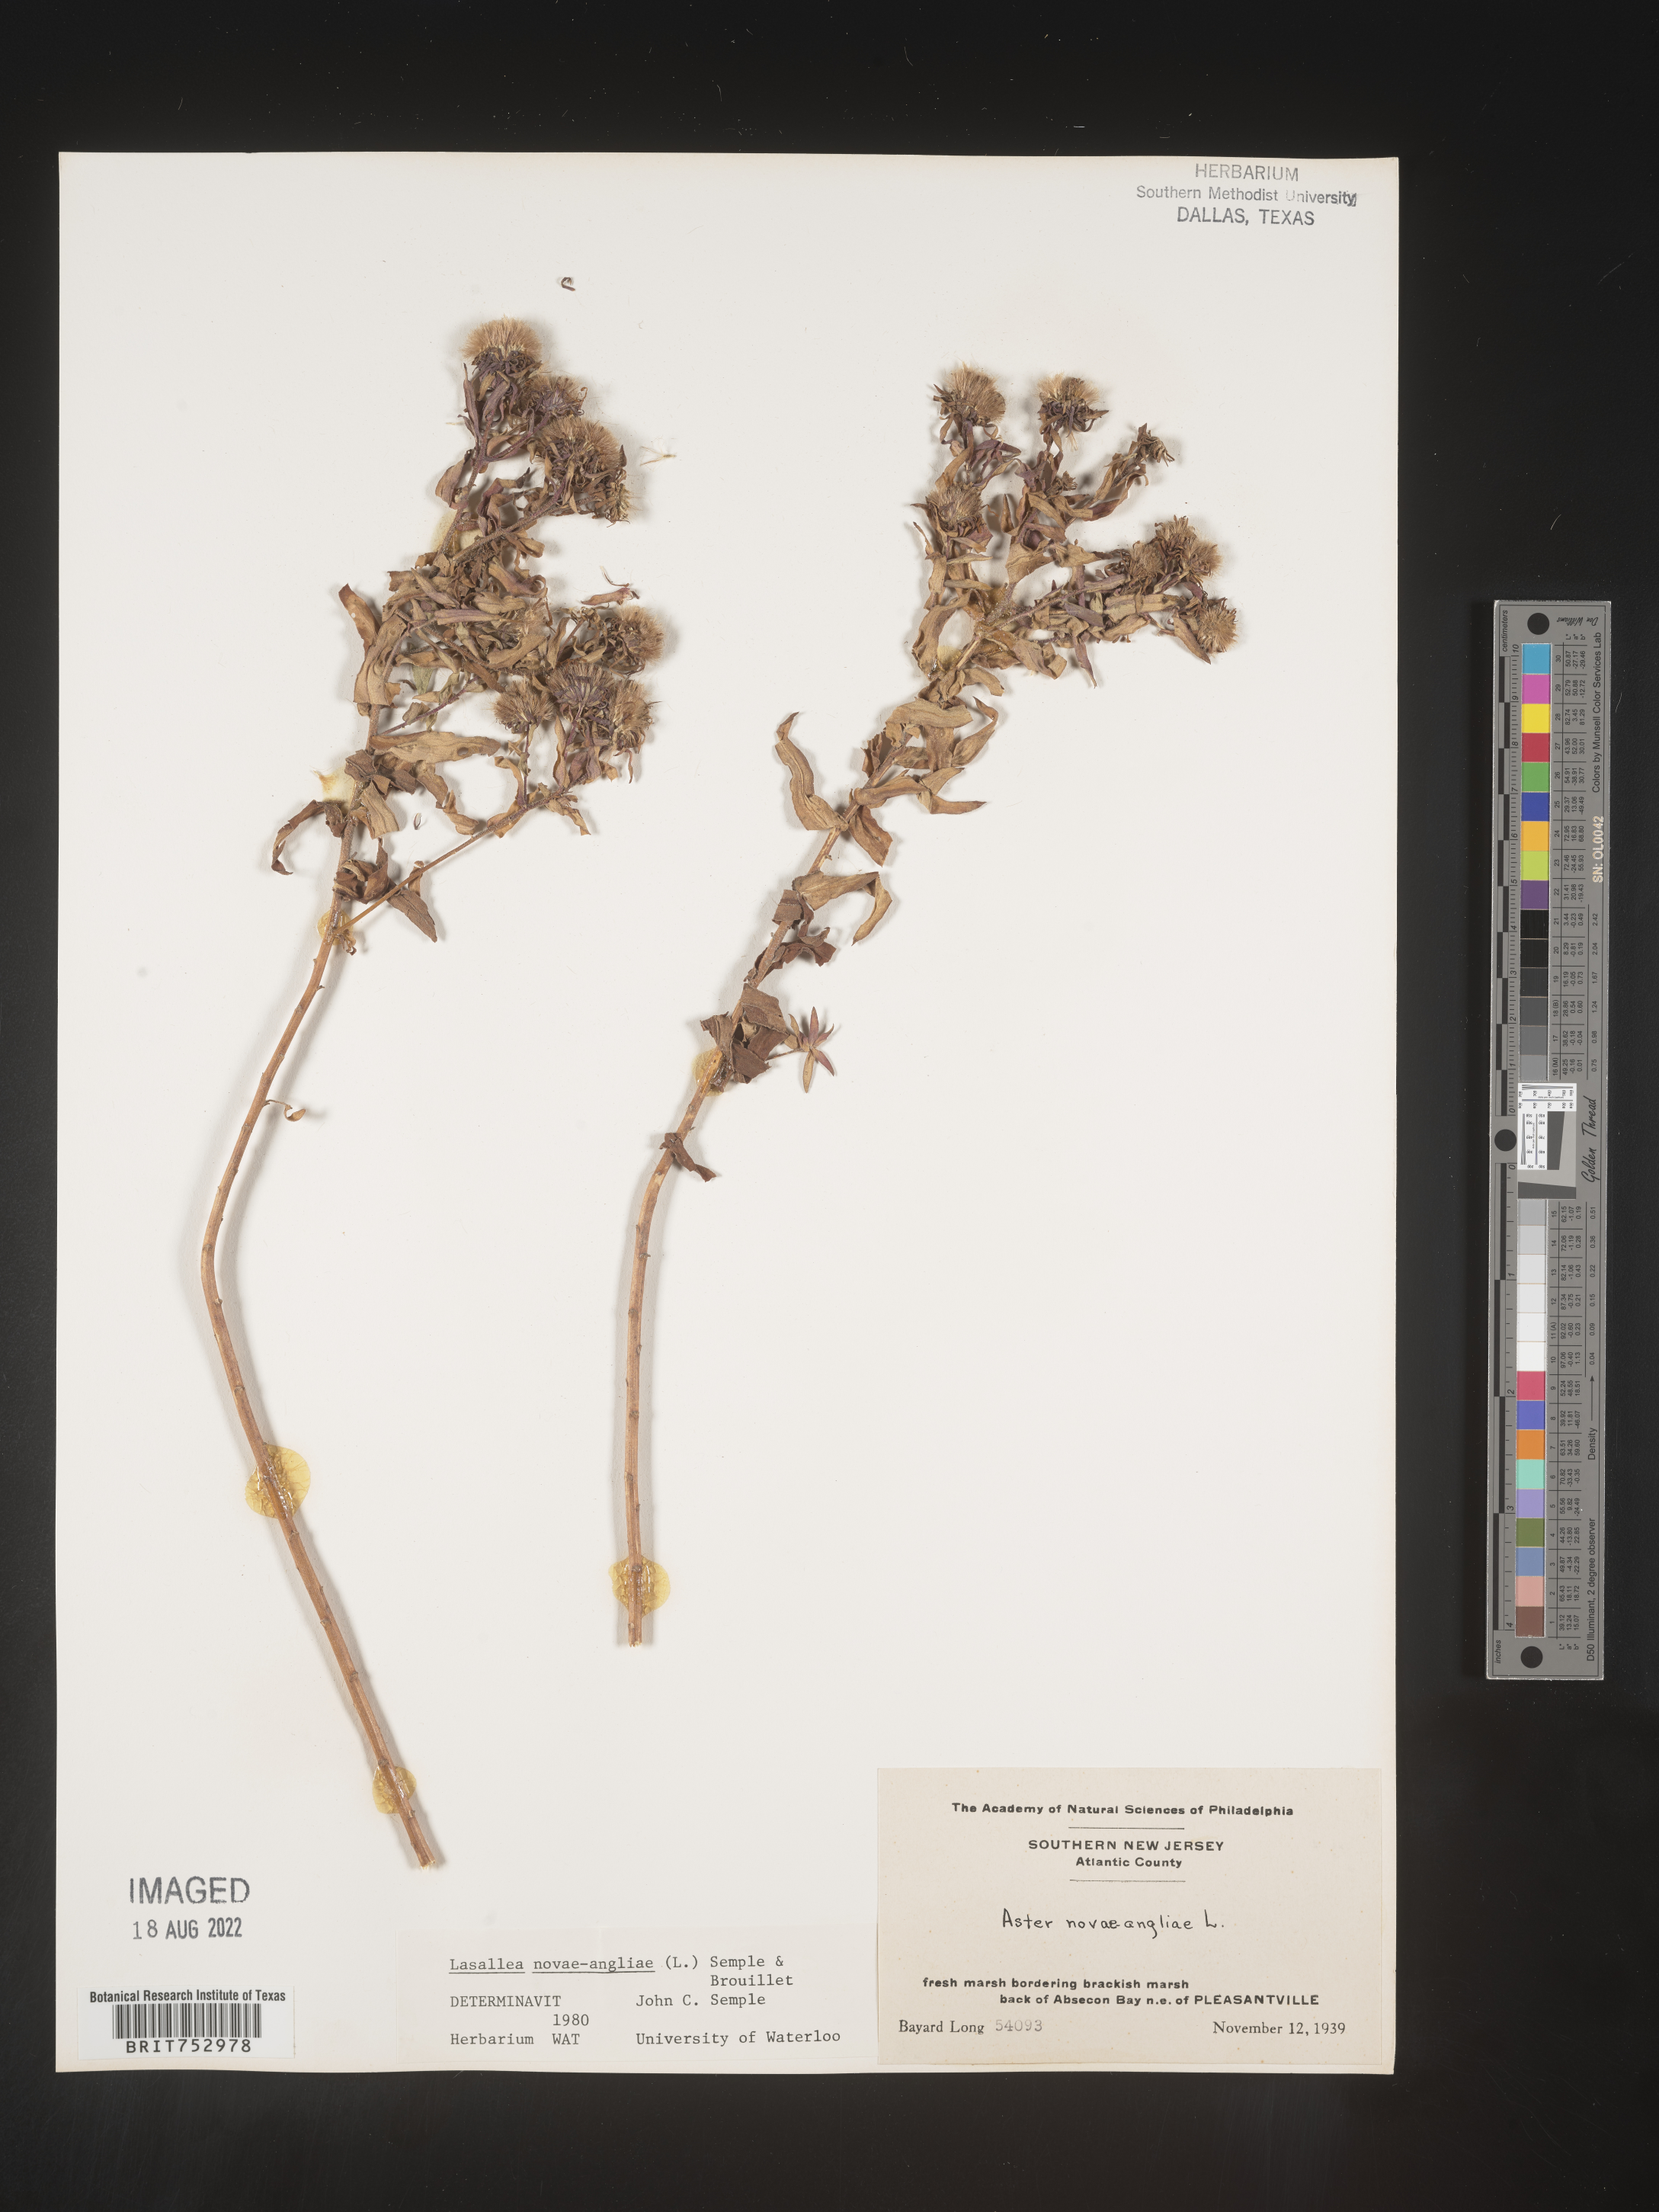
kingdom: Plantae
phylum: Tracheophyta
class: Magnoliopsida
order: Asterales
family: Asteraceae
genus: Symphyotrichum
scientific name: Symphyotrichum novae-angliae
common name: Michaelmas daisy
